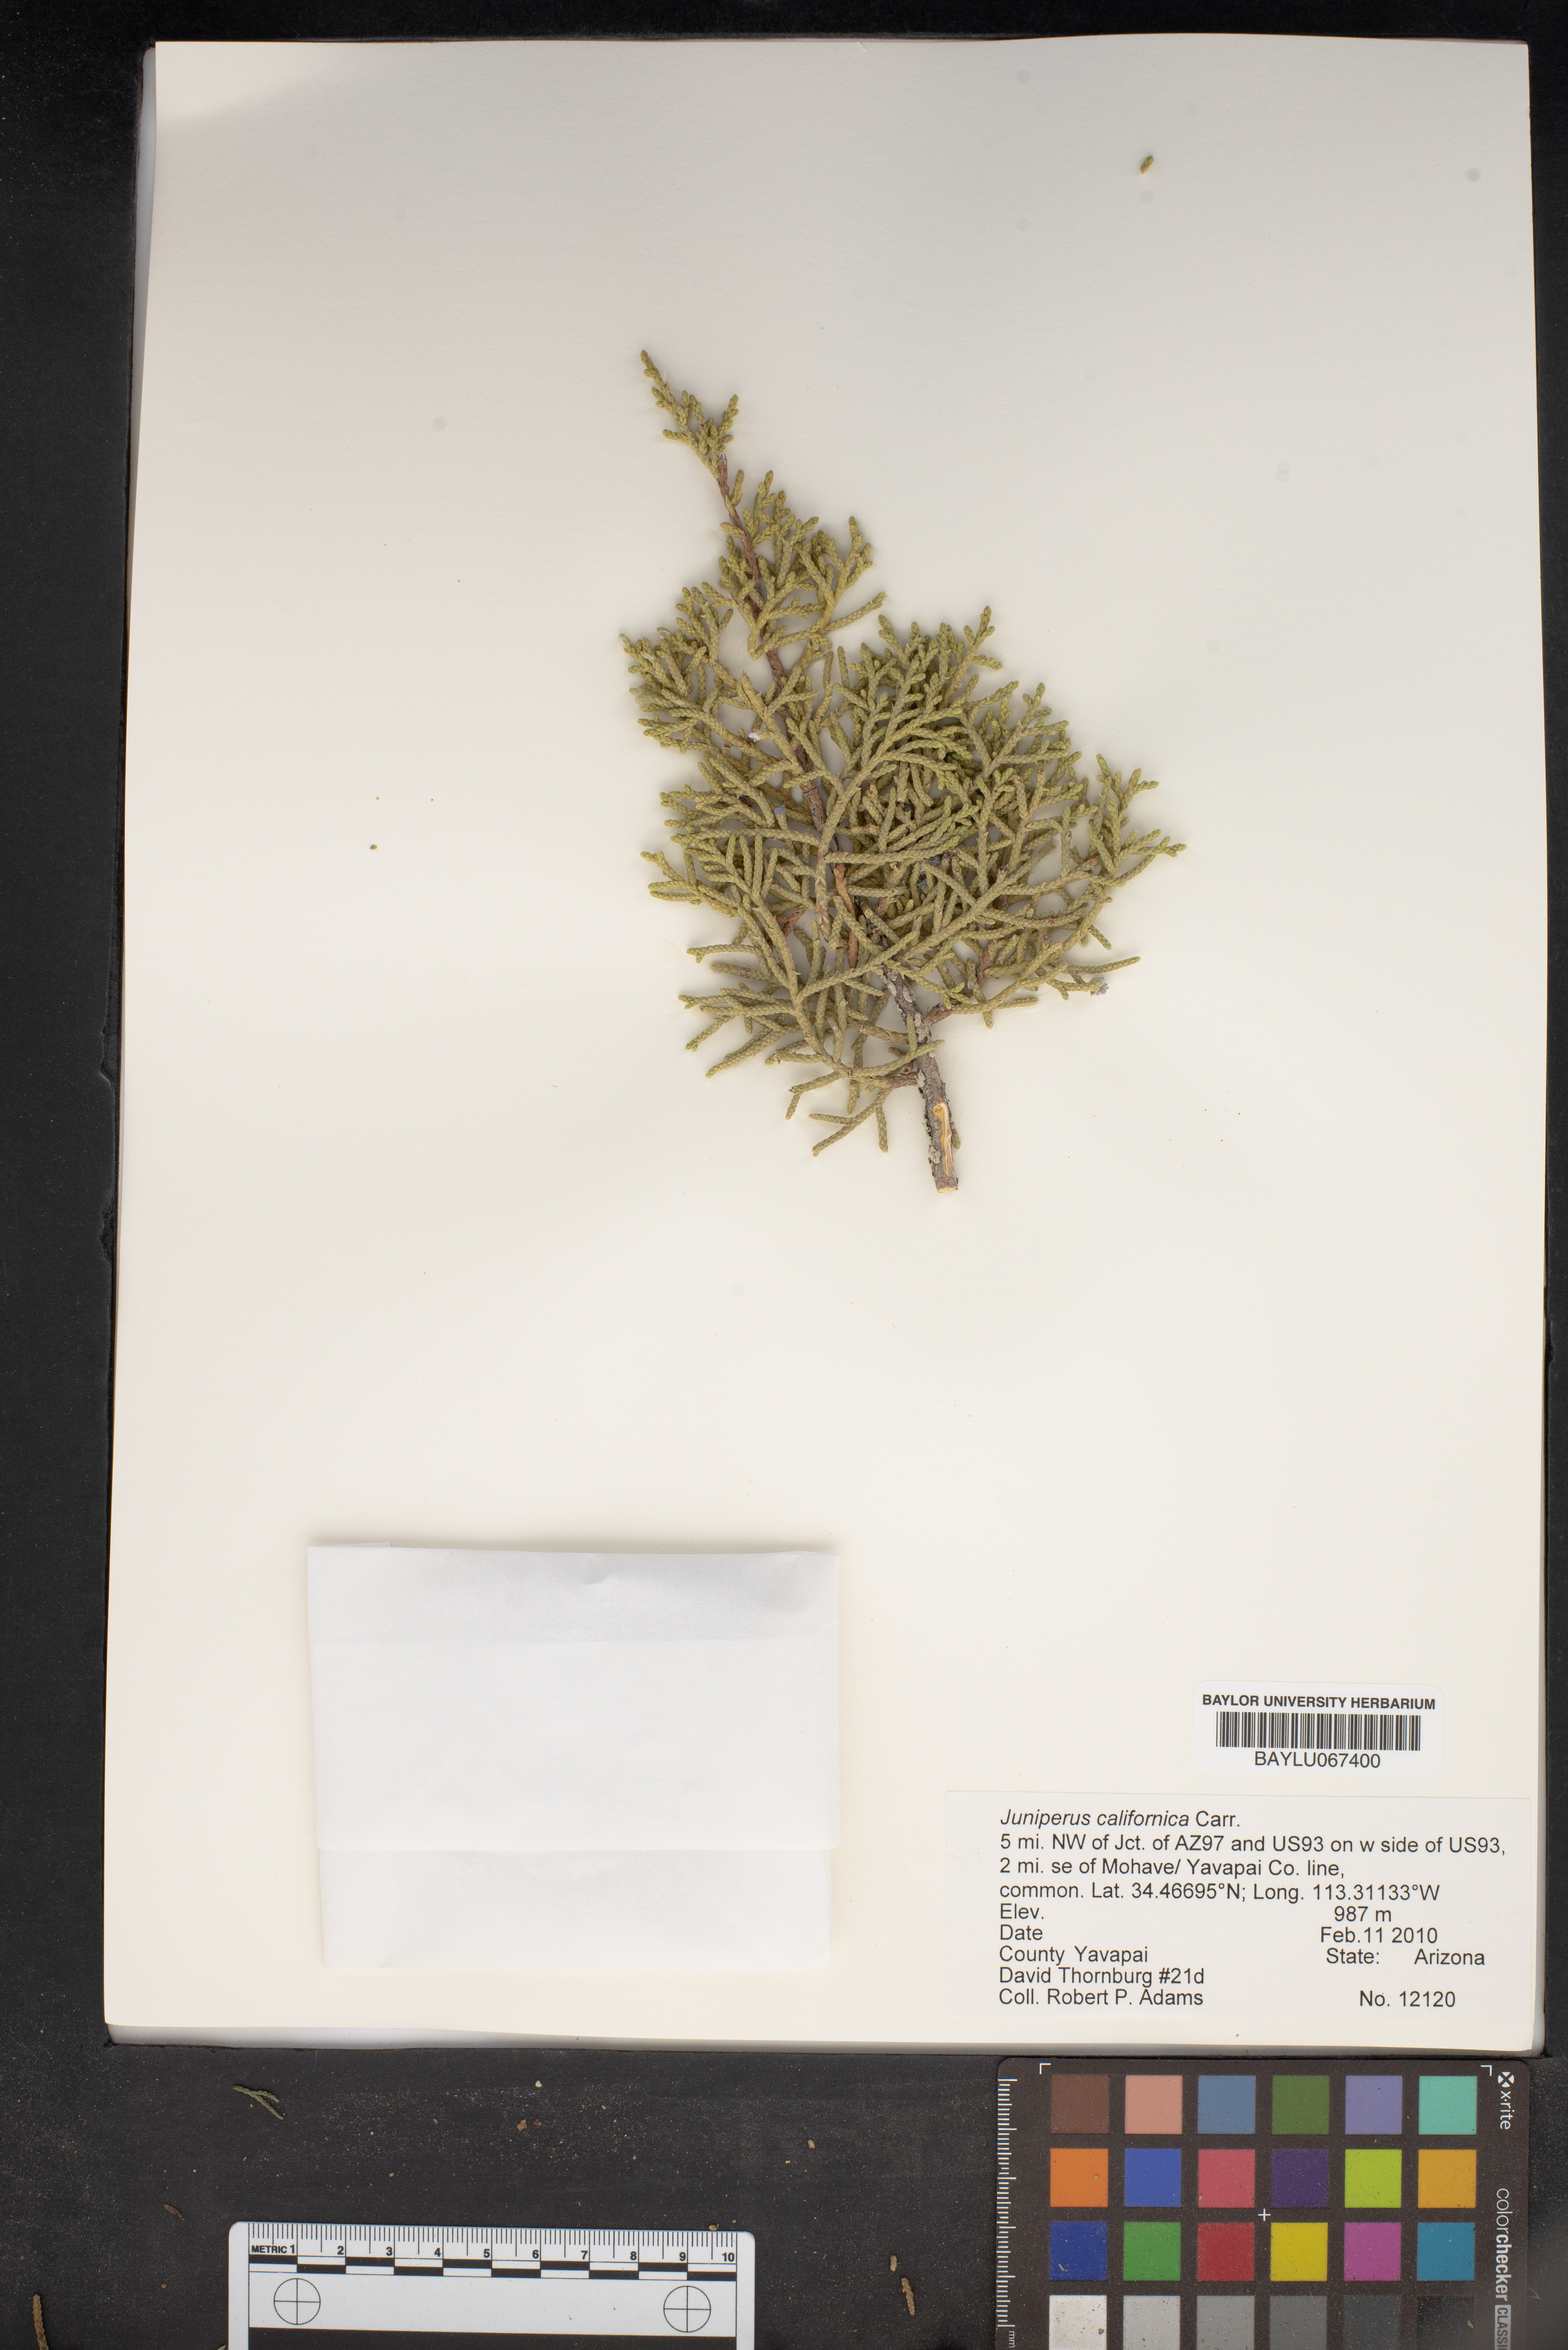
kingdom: Plantae
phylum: Tracheophyta
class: Pinopsida
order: Pinales
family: Cupressaceae
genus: Juniperus
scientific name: Juniperus californica
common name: California juniper
